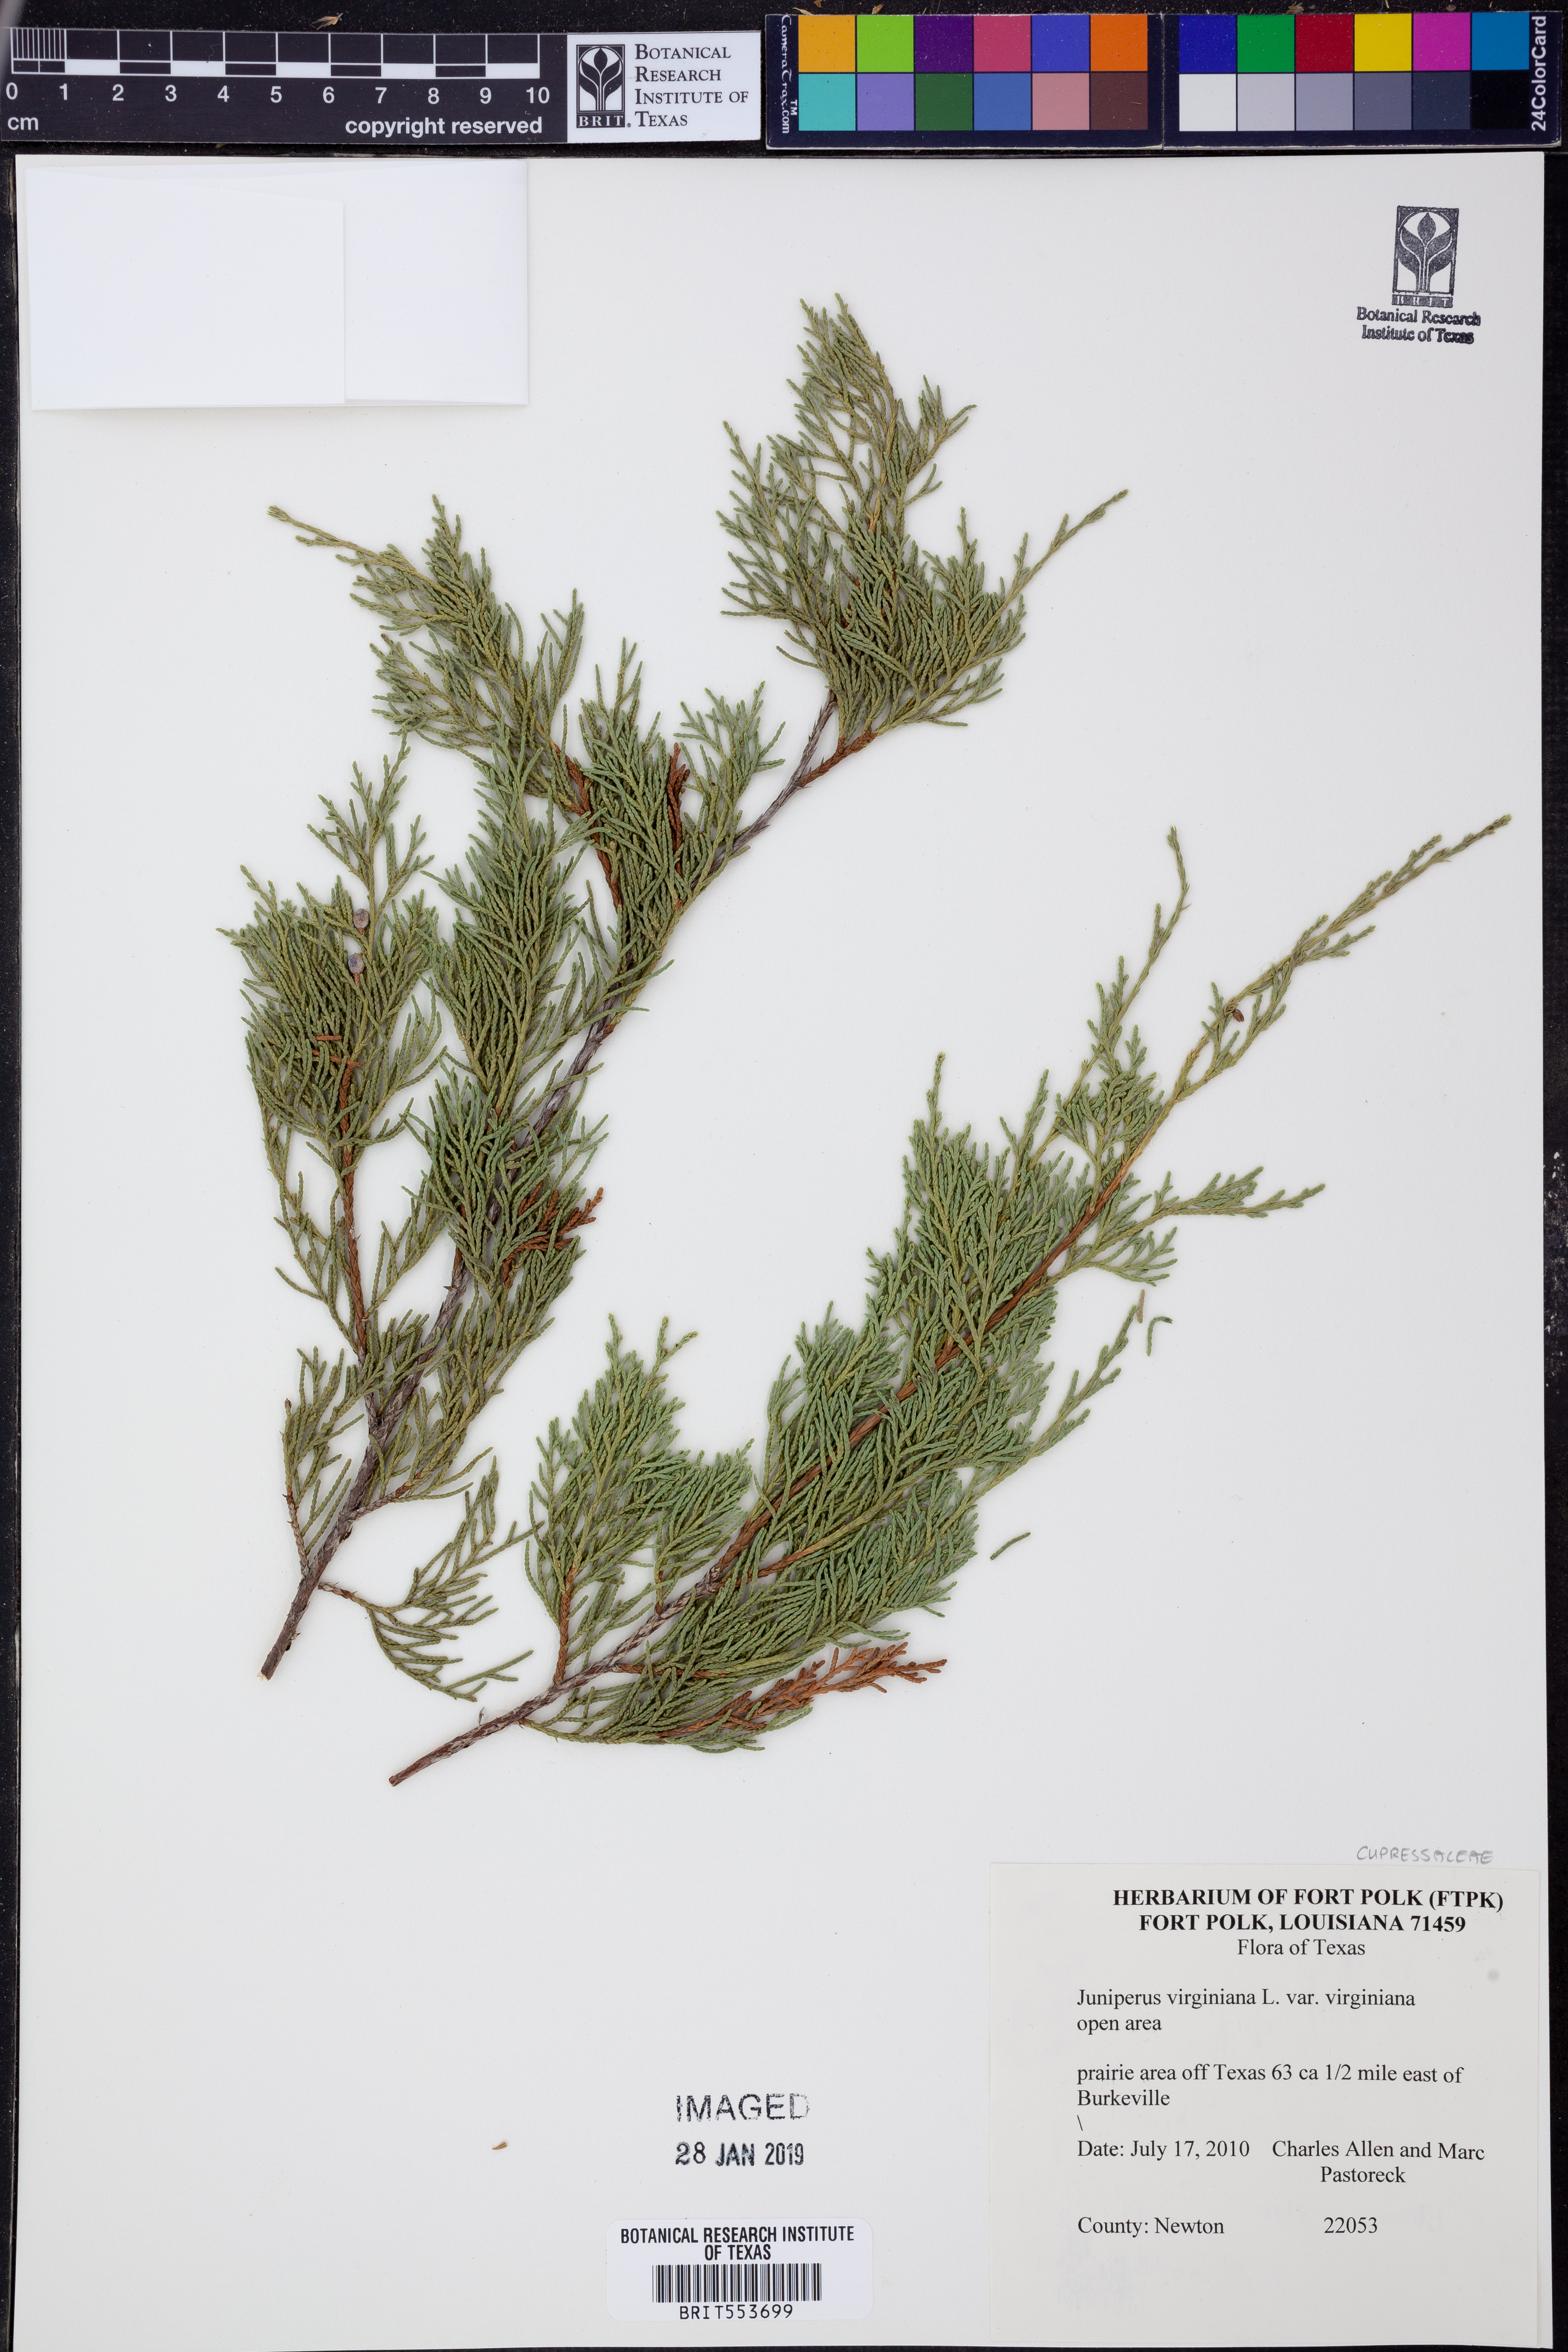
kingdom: Plantae
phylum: Tracheophyta
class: Pinopsida
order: Pinales
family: Cupressaceae
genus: Juniperus
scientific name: Juniperus virginiana
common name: Red juniper
